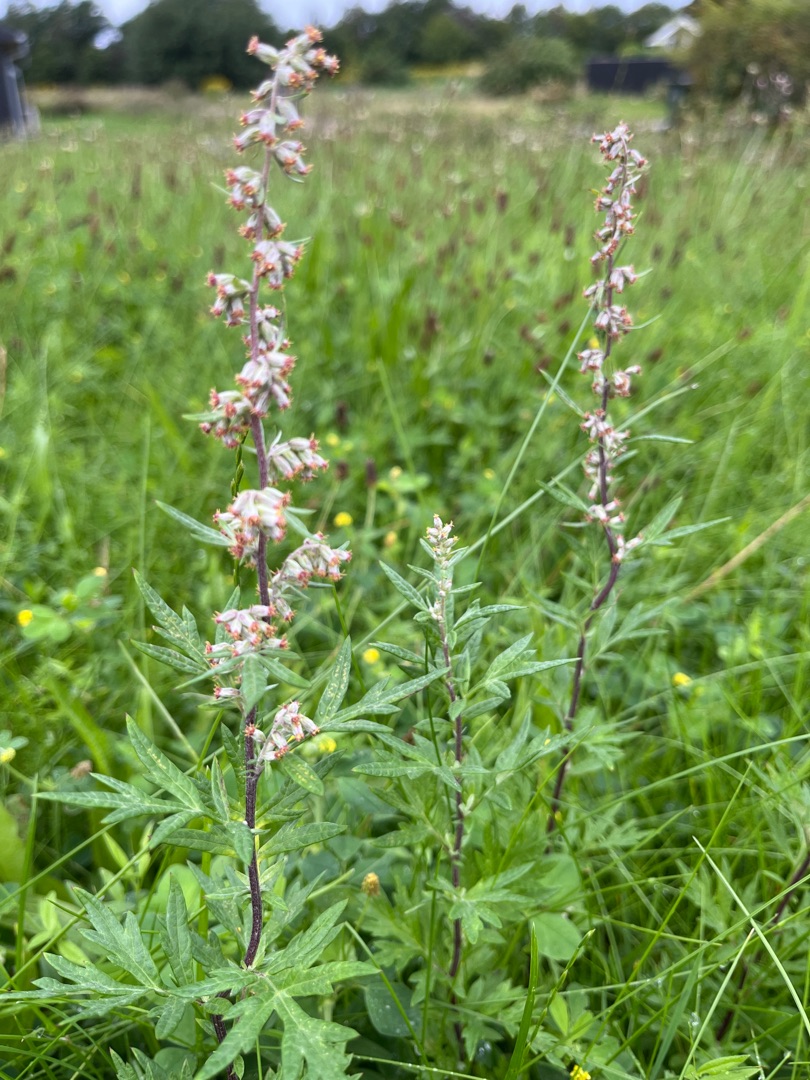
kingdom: Plantae
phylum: Tracheophyta
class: Magnoliopsida
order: Asterales
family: Asteraceae
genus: Artemisia
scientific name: Artemisia vulgaris
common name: Grå-bynke
